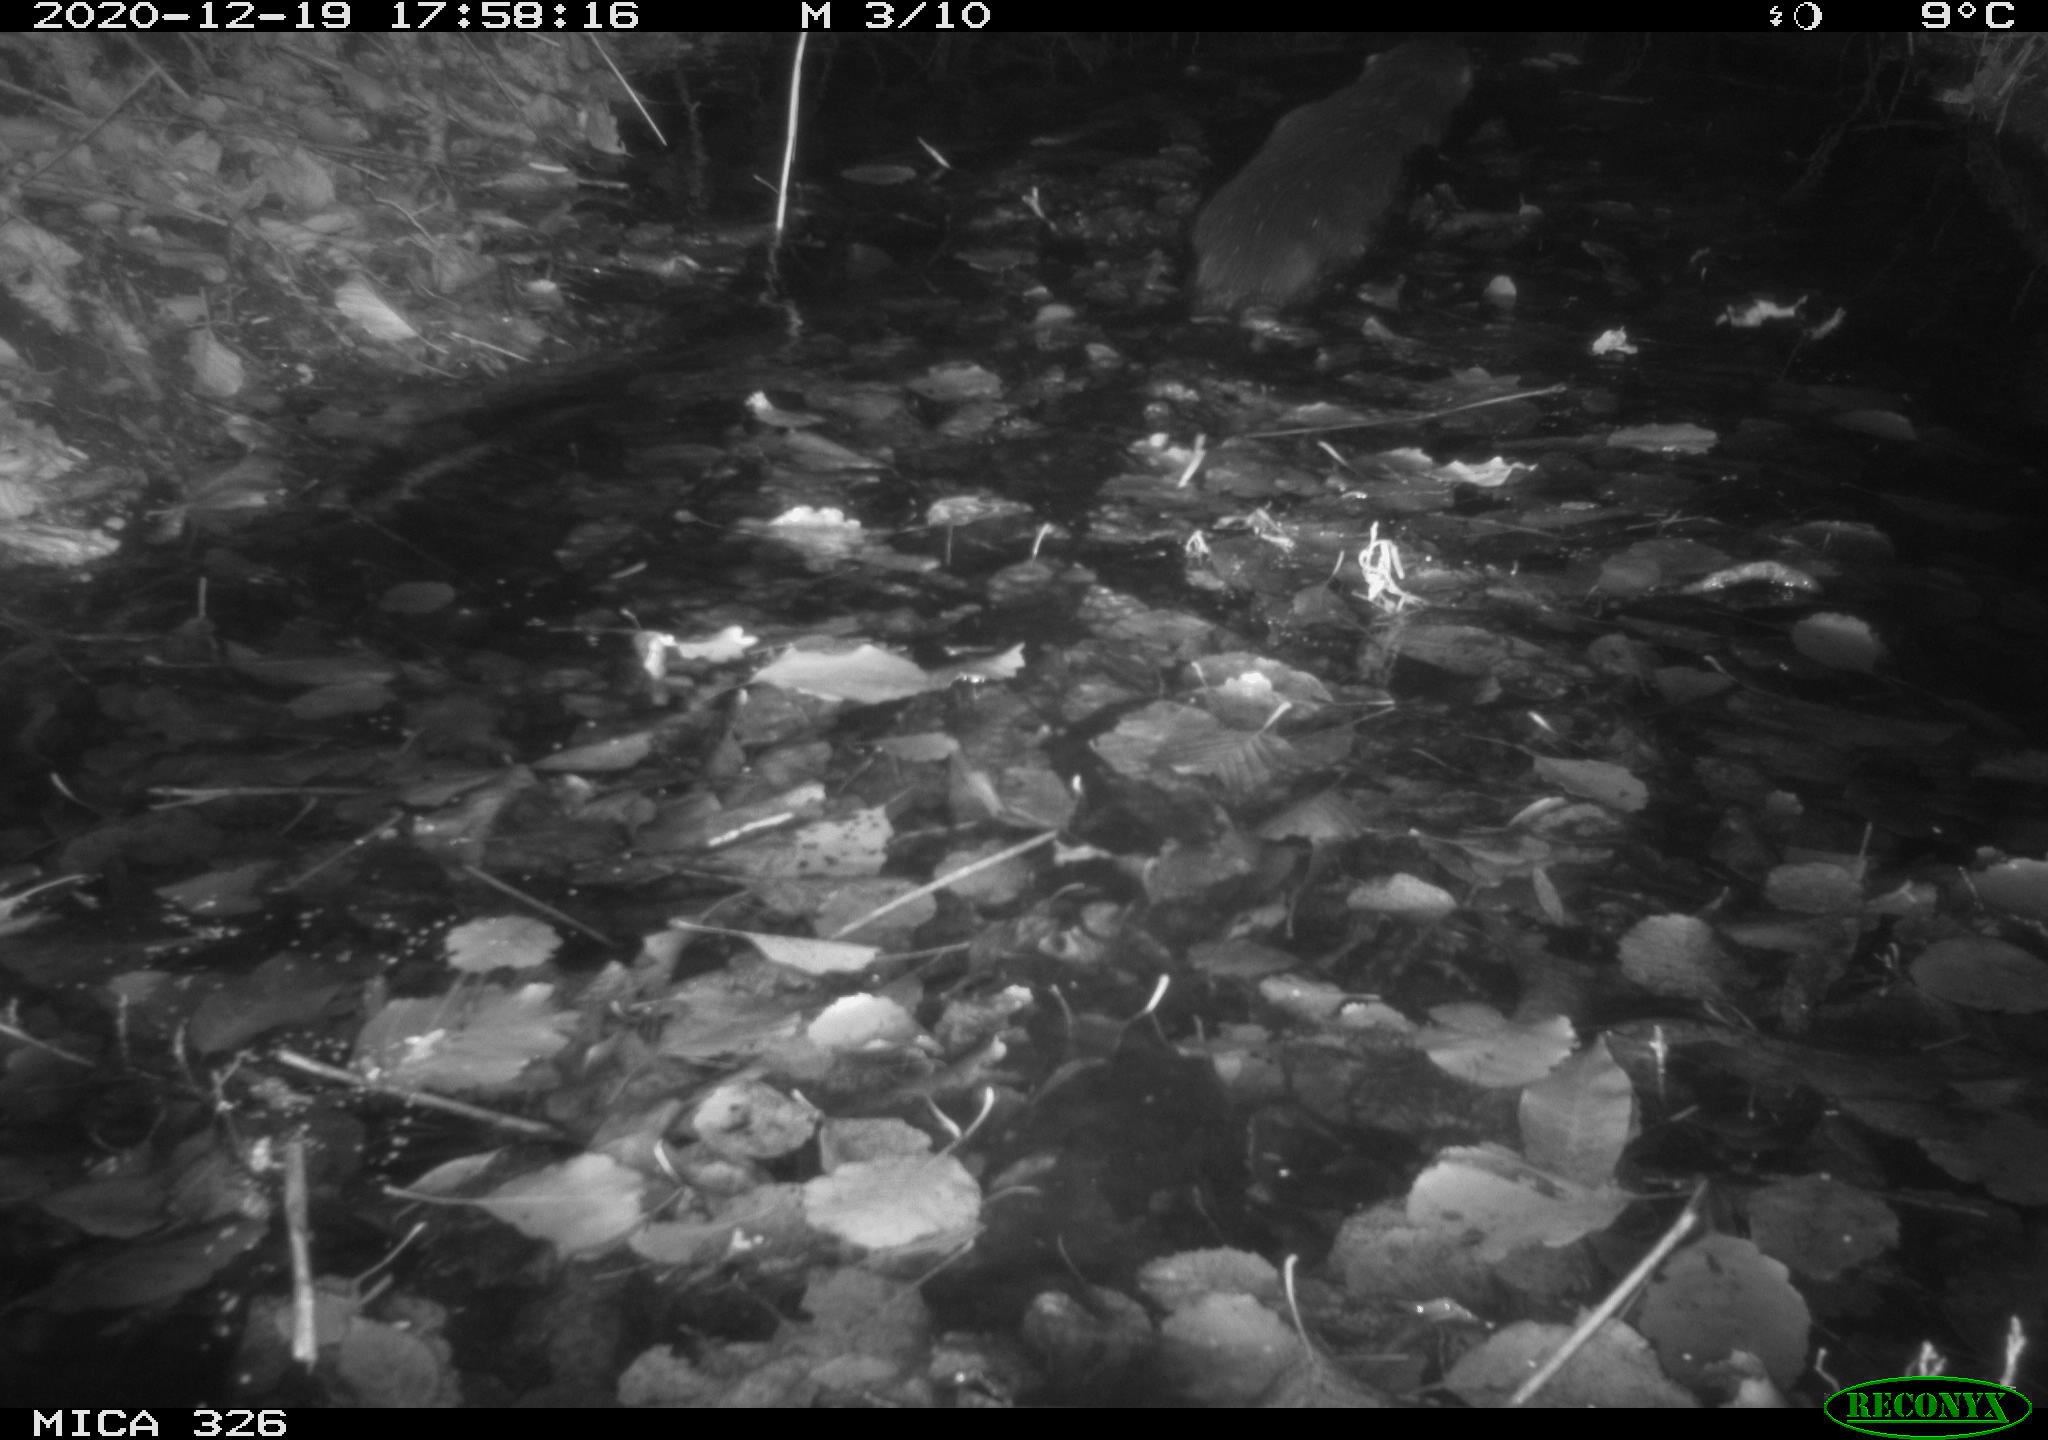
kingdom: Animalia
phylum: Chordata
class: Mammalia
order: Carnivora
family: Mustelidae
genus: Lutra
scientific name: Lutra lutra
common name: European otter
